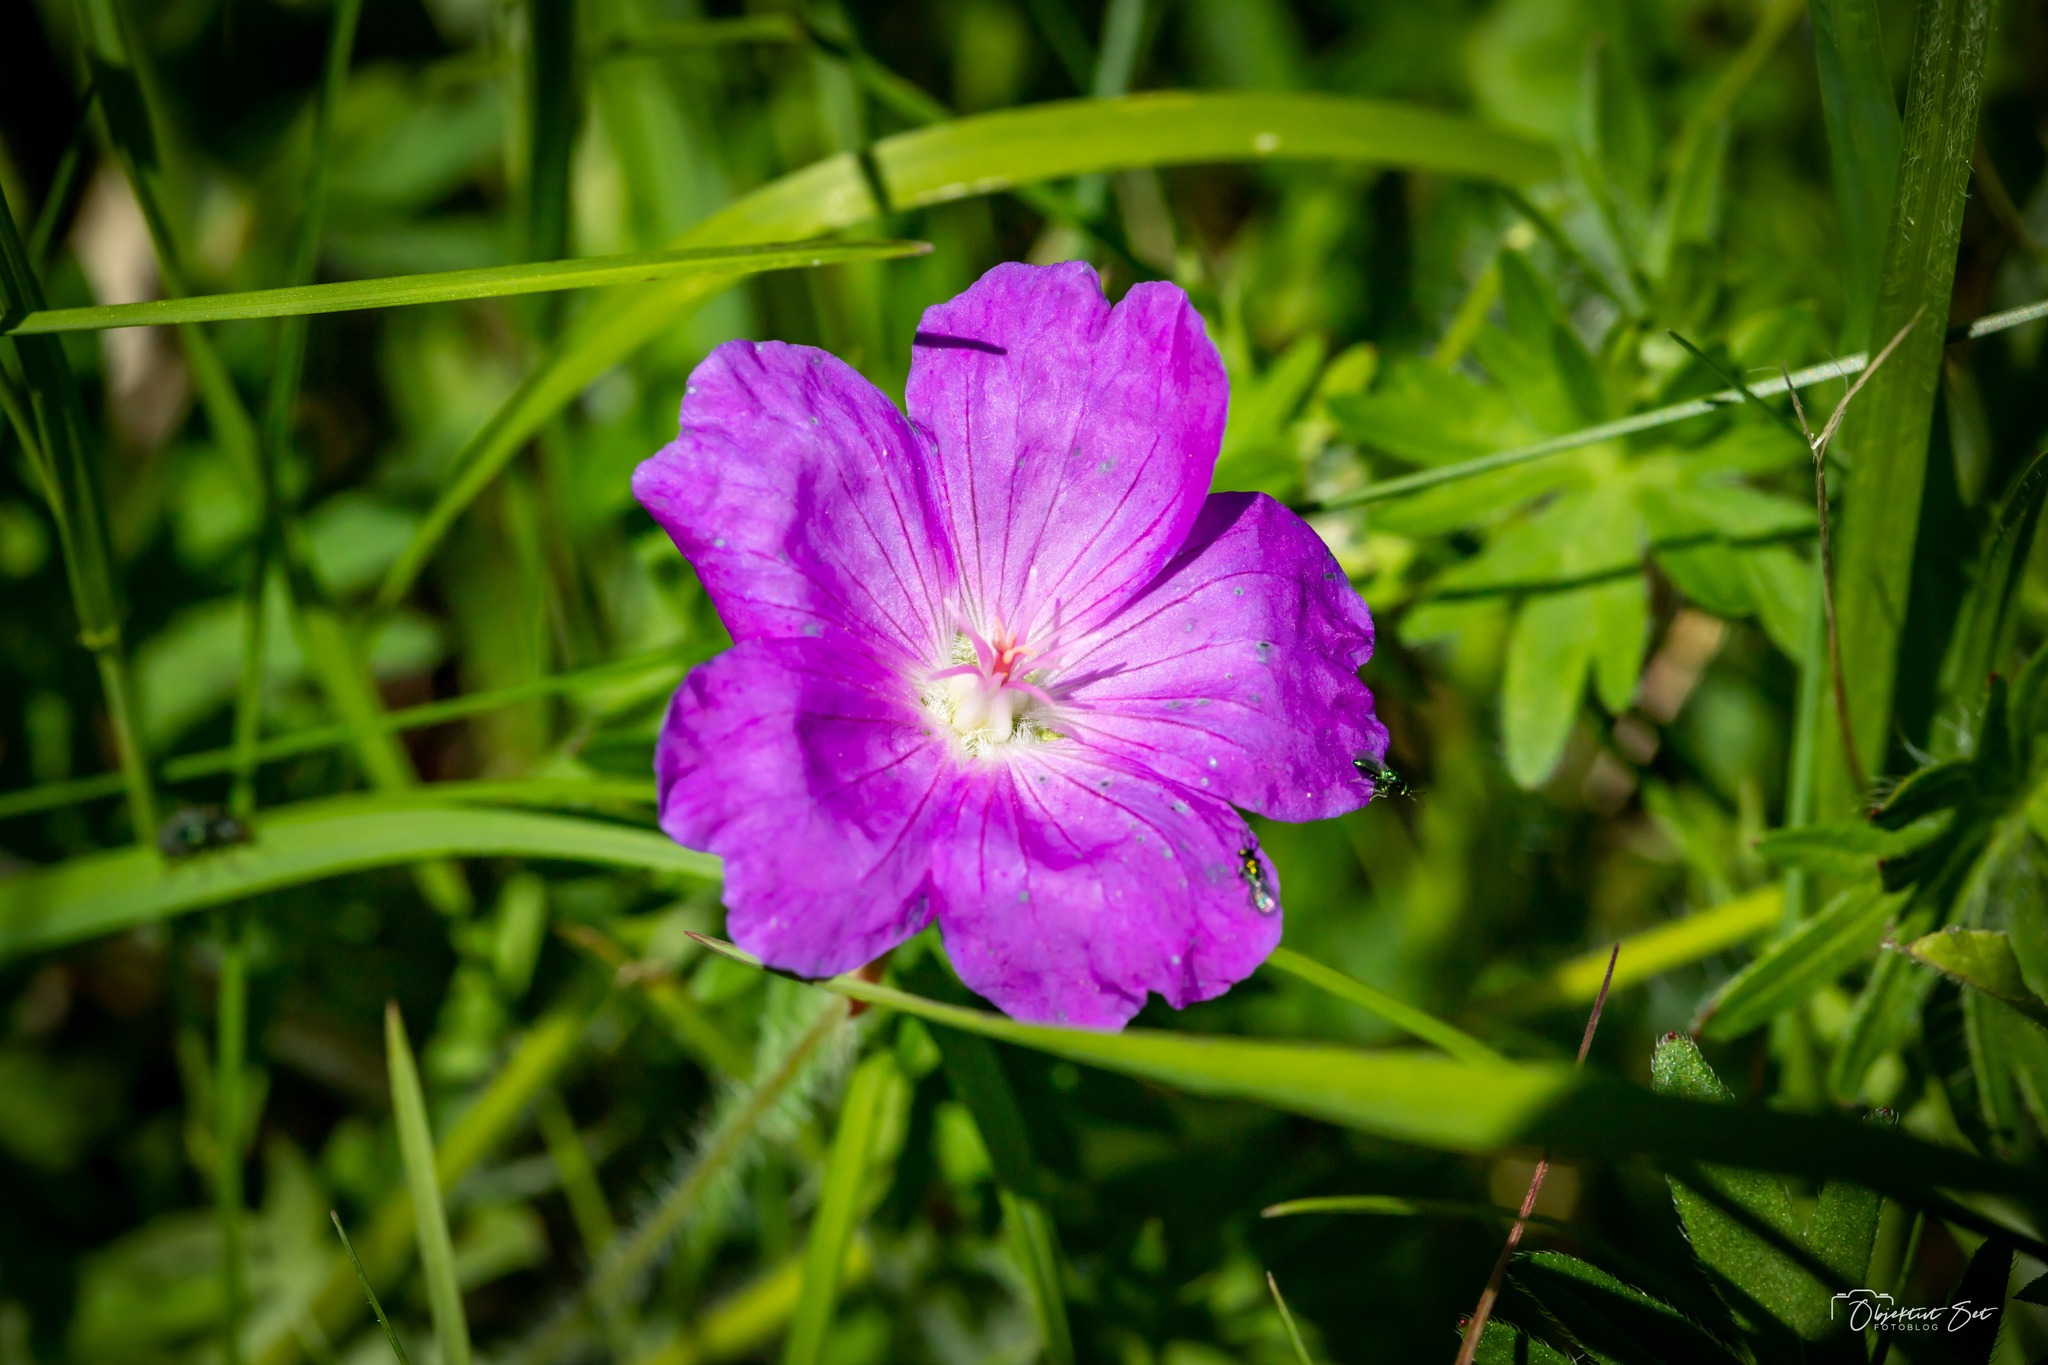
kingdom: Plantae
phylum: Tracheophyta
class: Magnoliopsida
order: Geraniales
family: Geraniaceae
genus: Geranium
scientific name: Geranium sanguineum
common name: Blodrød storkenæb
